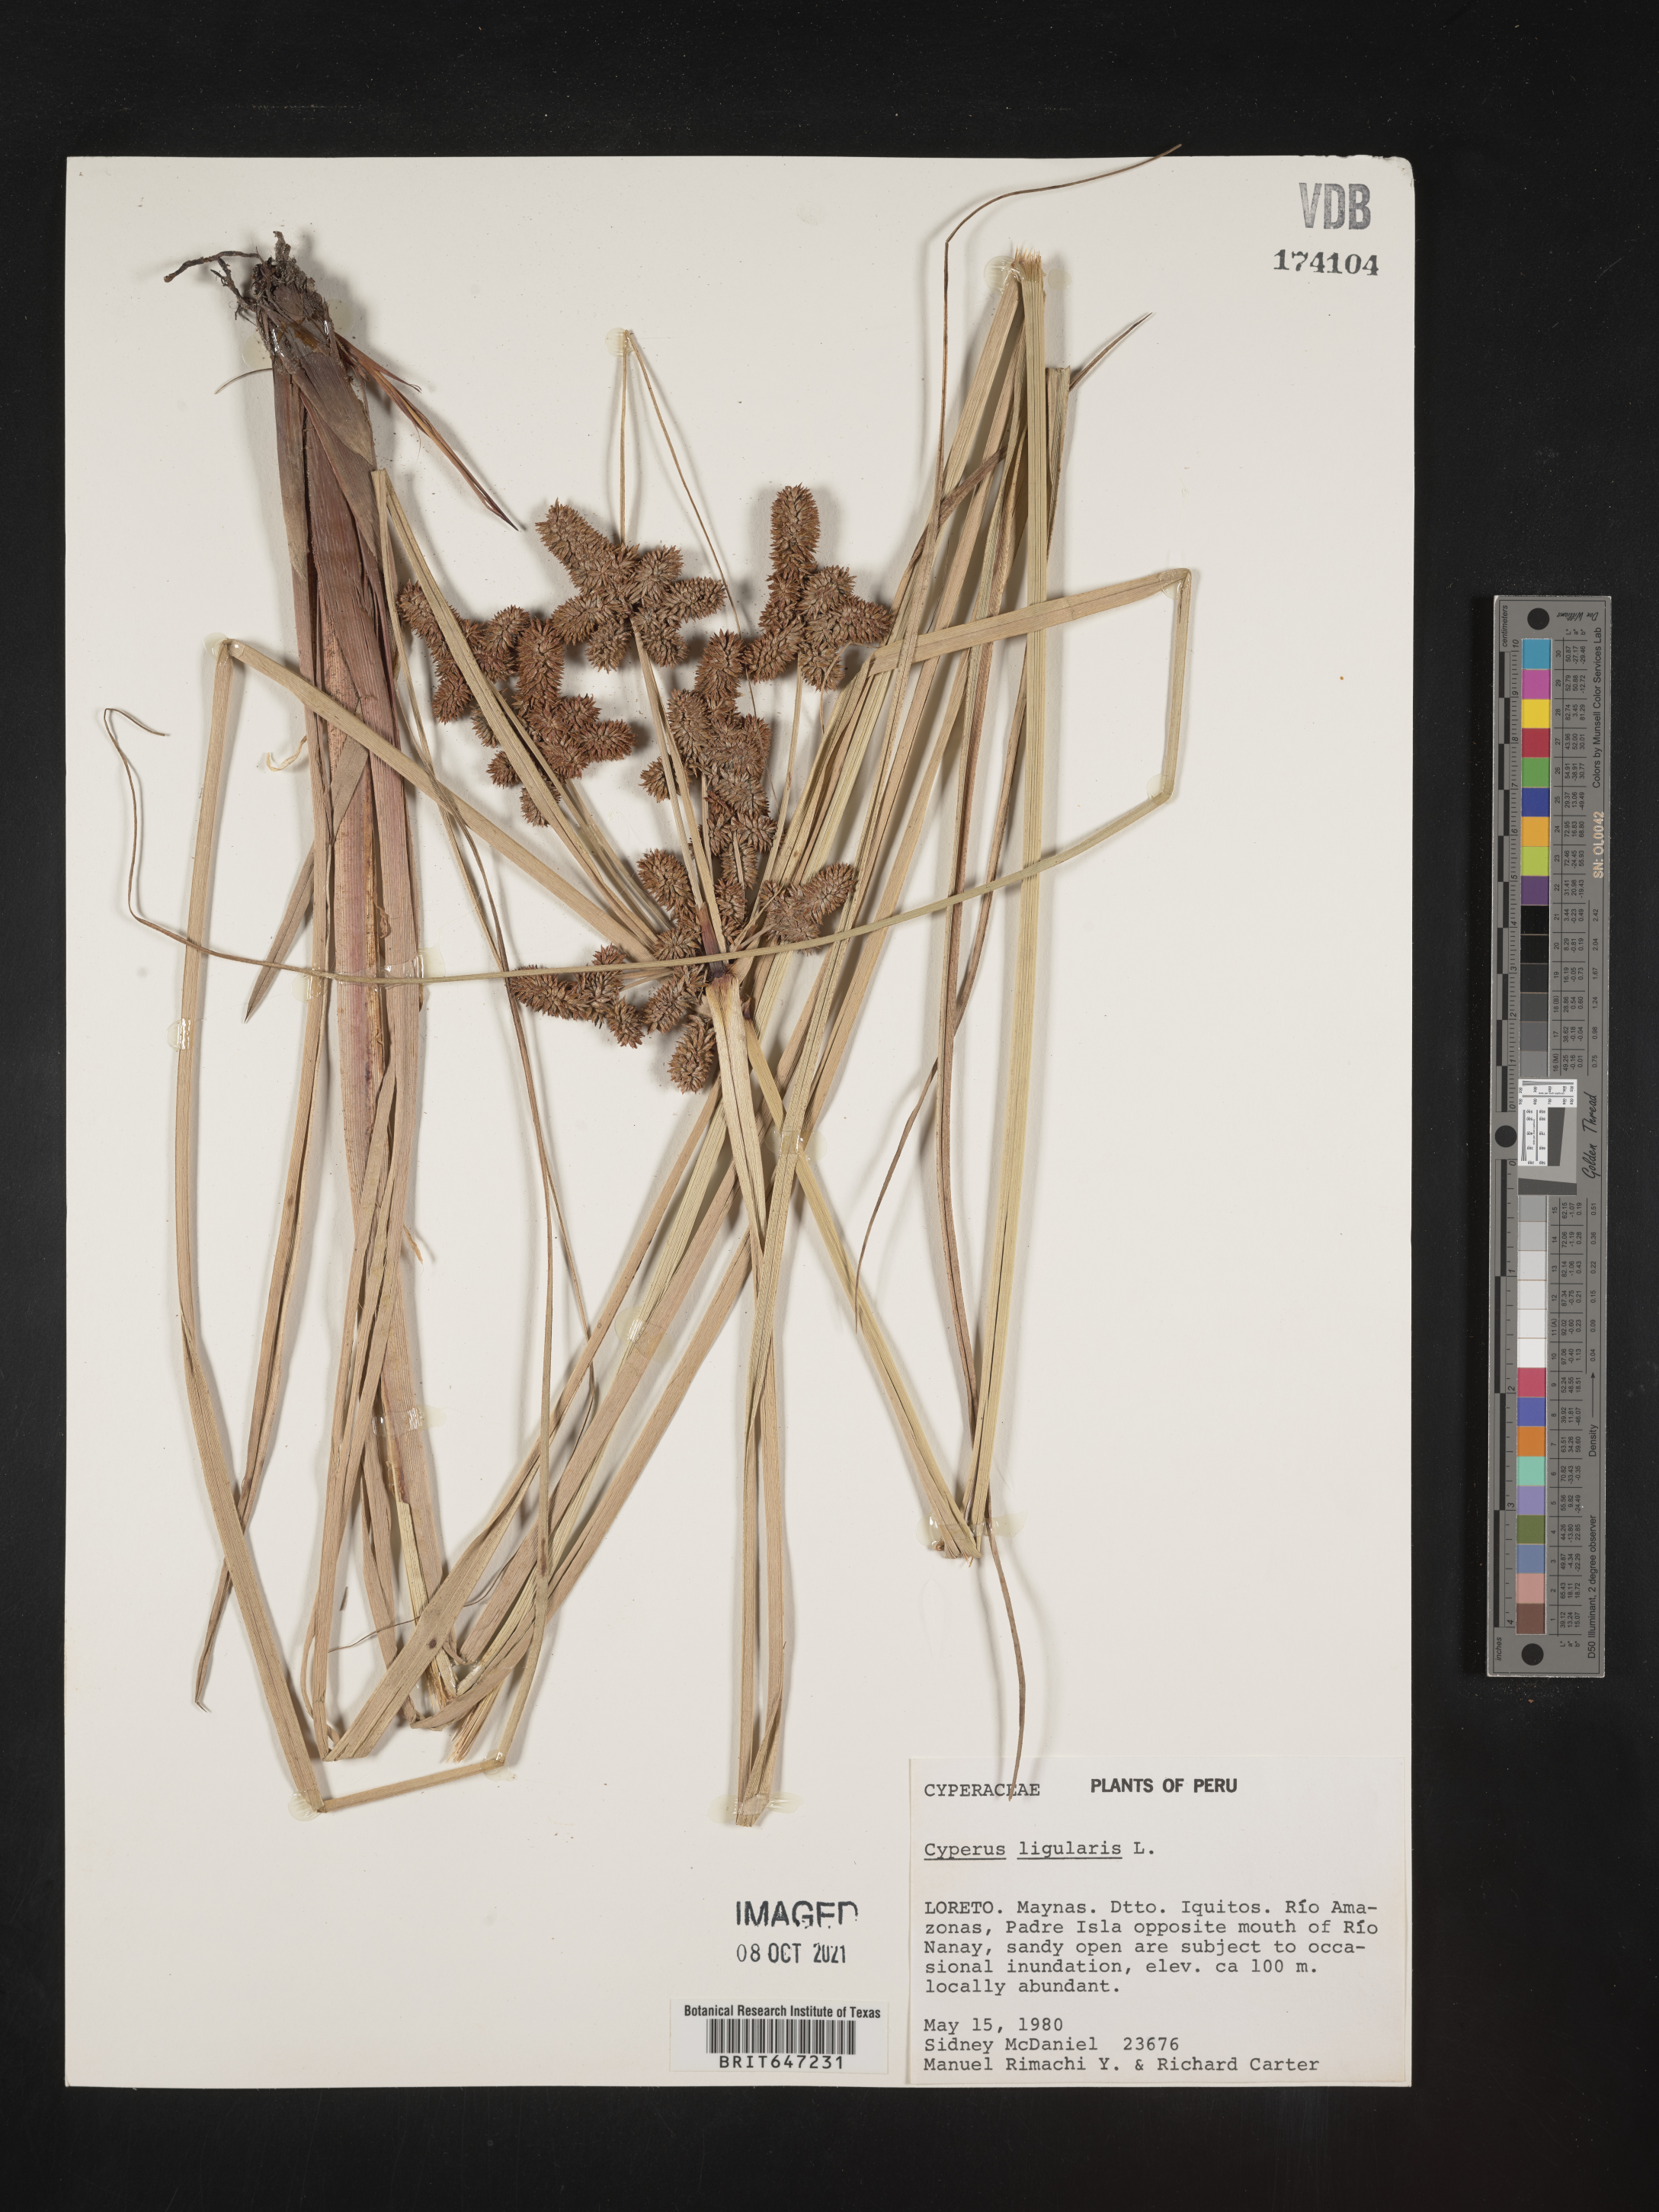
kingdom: Plantae
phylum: Tracheophyta
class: Liliopsida
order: Poales
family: Cyperaceae
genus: Cyperus
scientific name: Cyperus ligularis
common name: Swamp flat sedge
